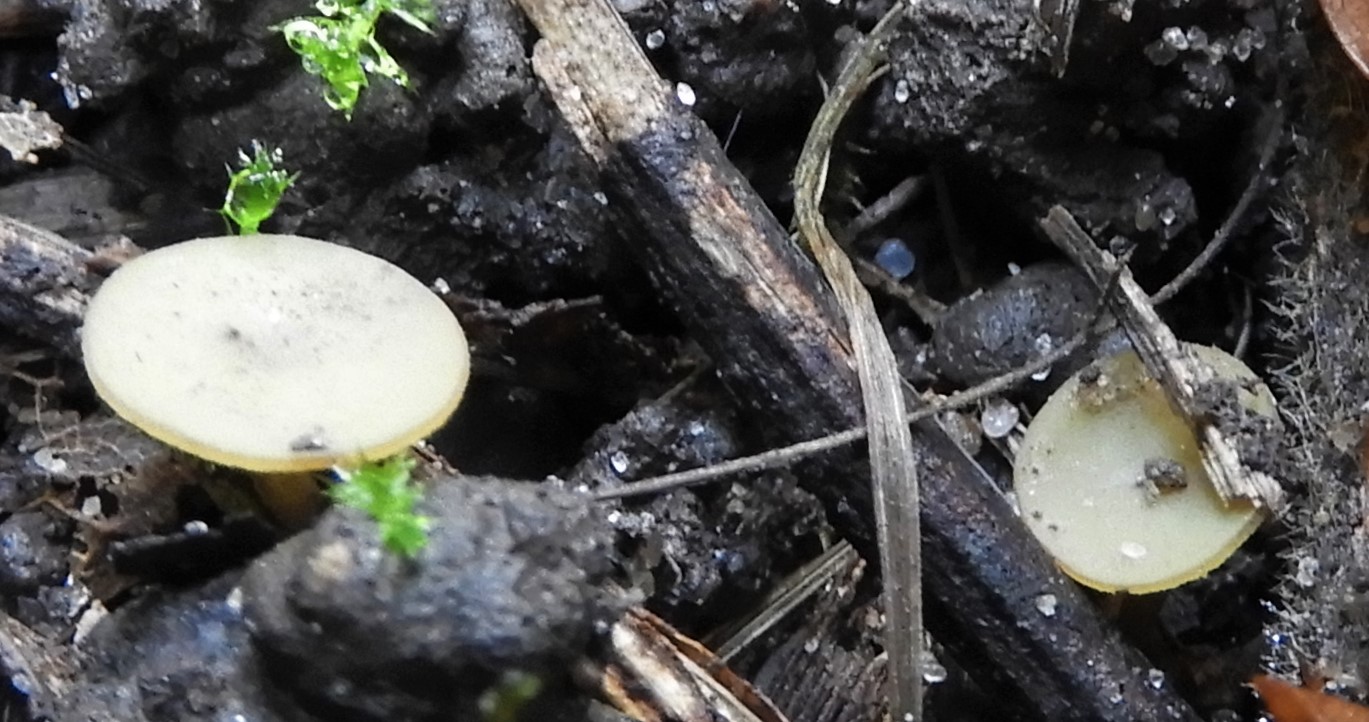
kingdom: Fungi
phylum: Ascomycota
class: Leotiomycetes
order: Helotiales
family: Rutstroemiaceae
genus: Lanzia
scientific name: Lanzia luteovirescens
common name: olivengul brunskive
